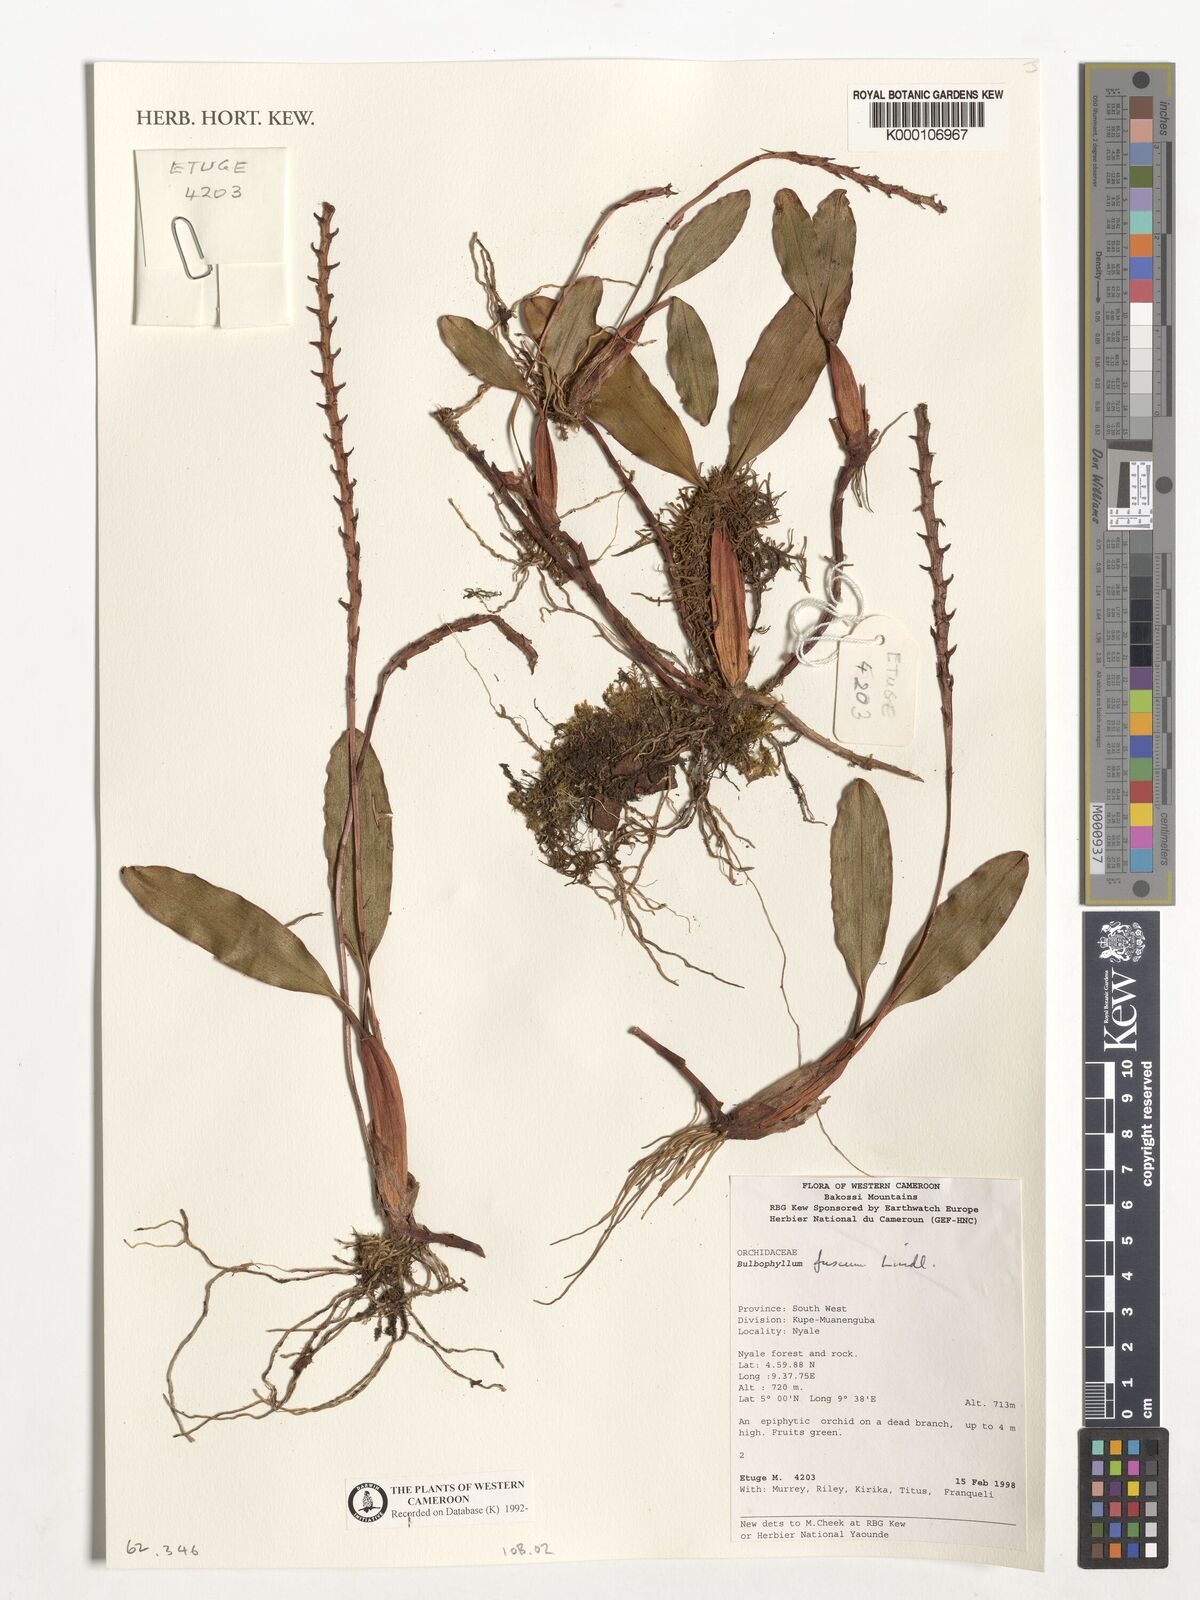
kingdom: Plantae
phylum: Tracheophyta
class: Liliopsida
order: Asparagales
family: Orchidaceae
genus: Bulbophyllum
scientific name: Bulbophyllum fuscum
